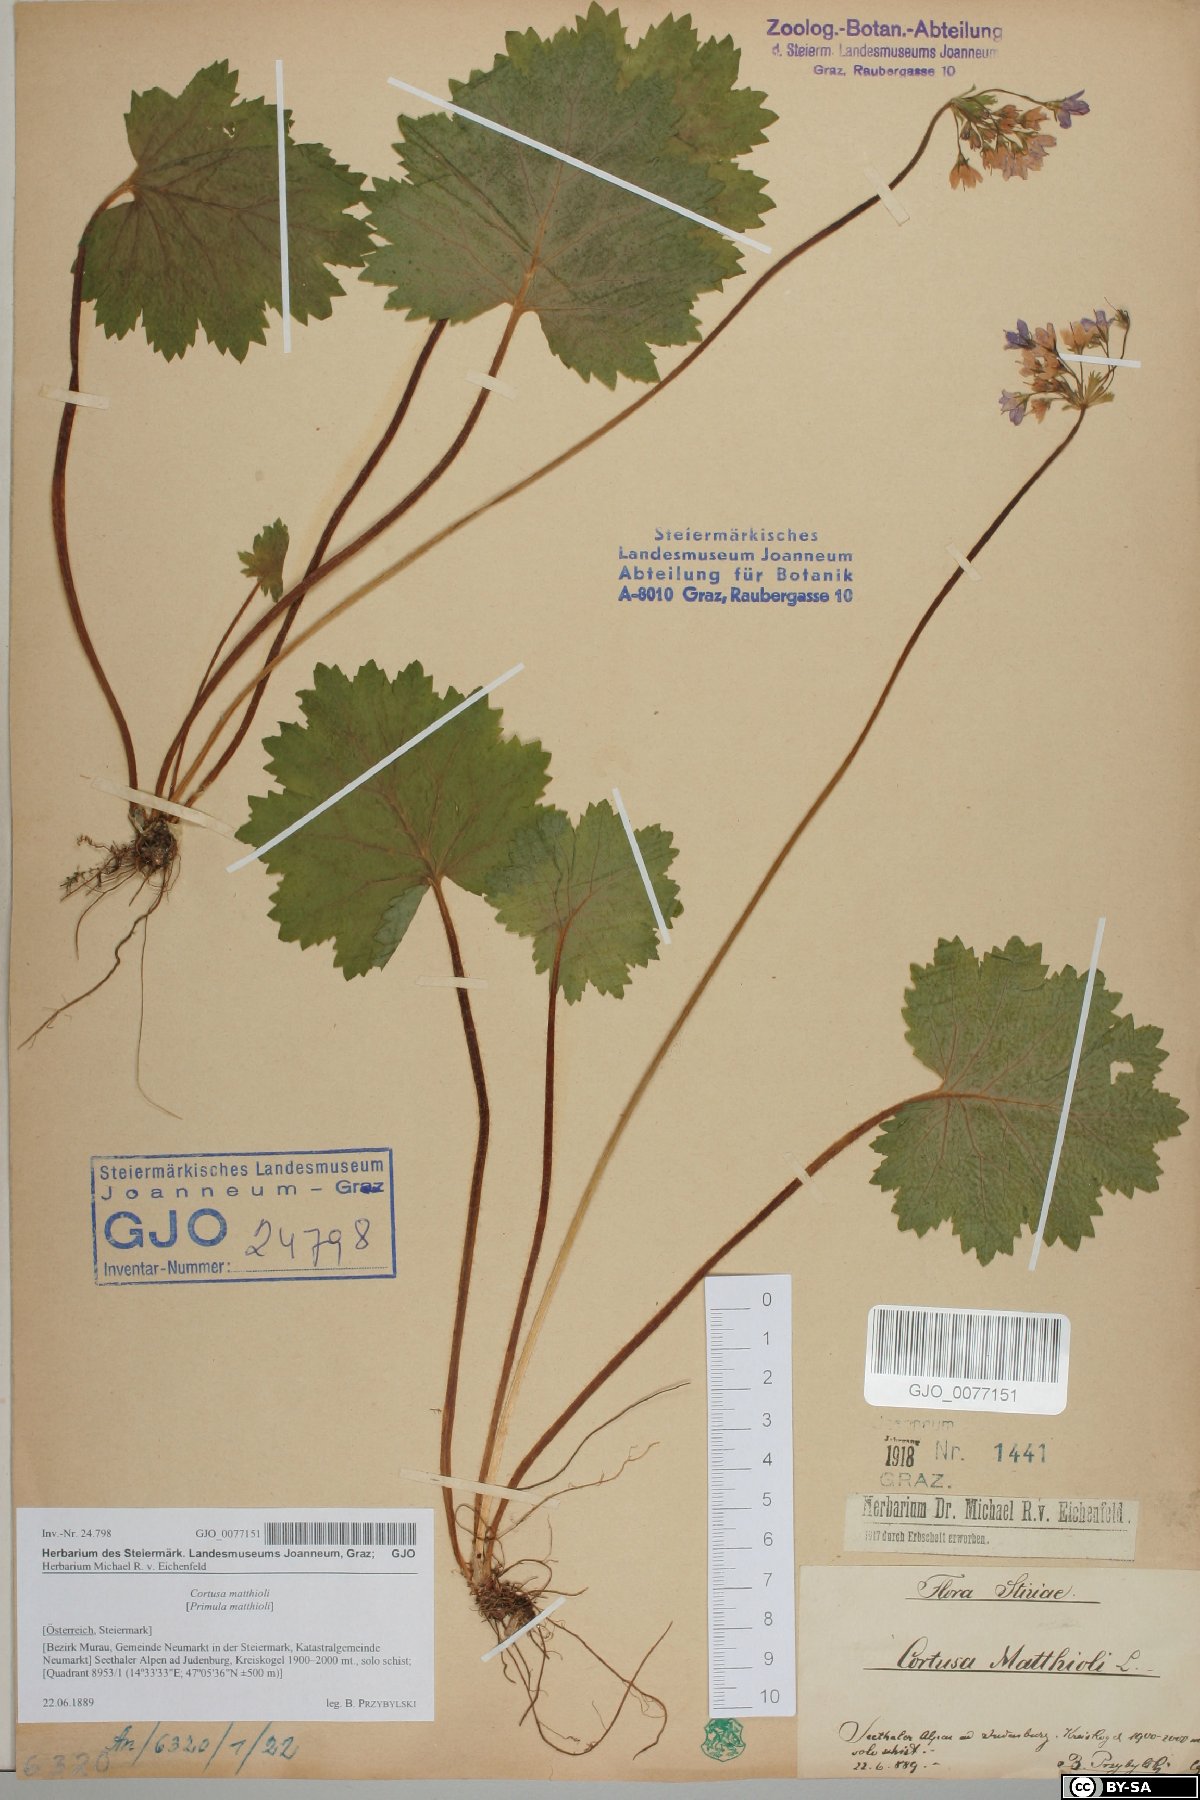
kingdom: Plantae
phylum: Tracheophyta
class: Magnoliopsida
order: Ericales
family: Primulaceae
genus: Primula
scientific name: Primula matthioli
